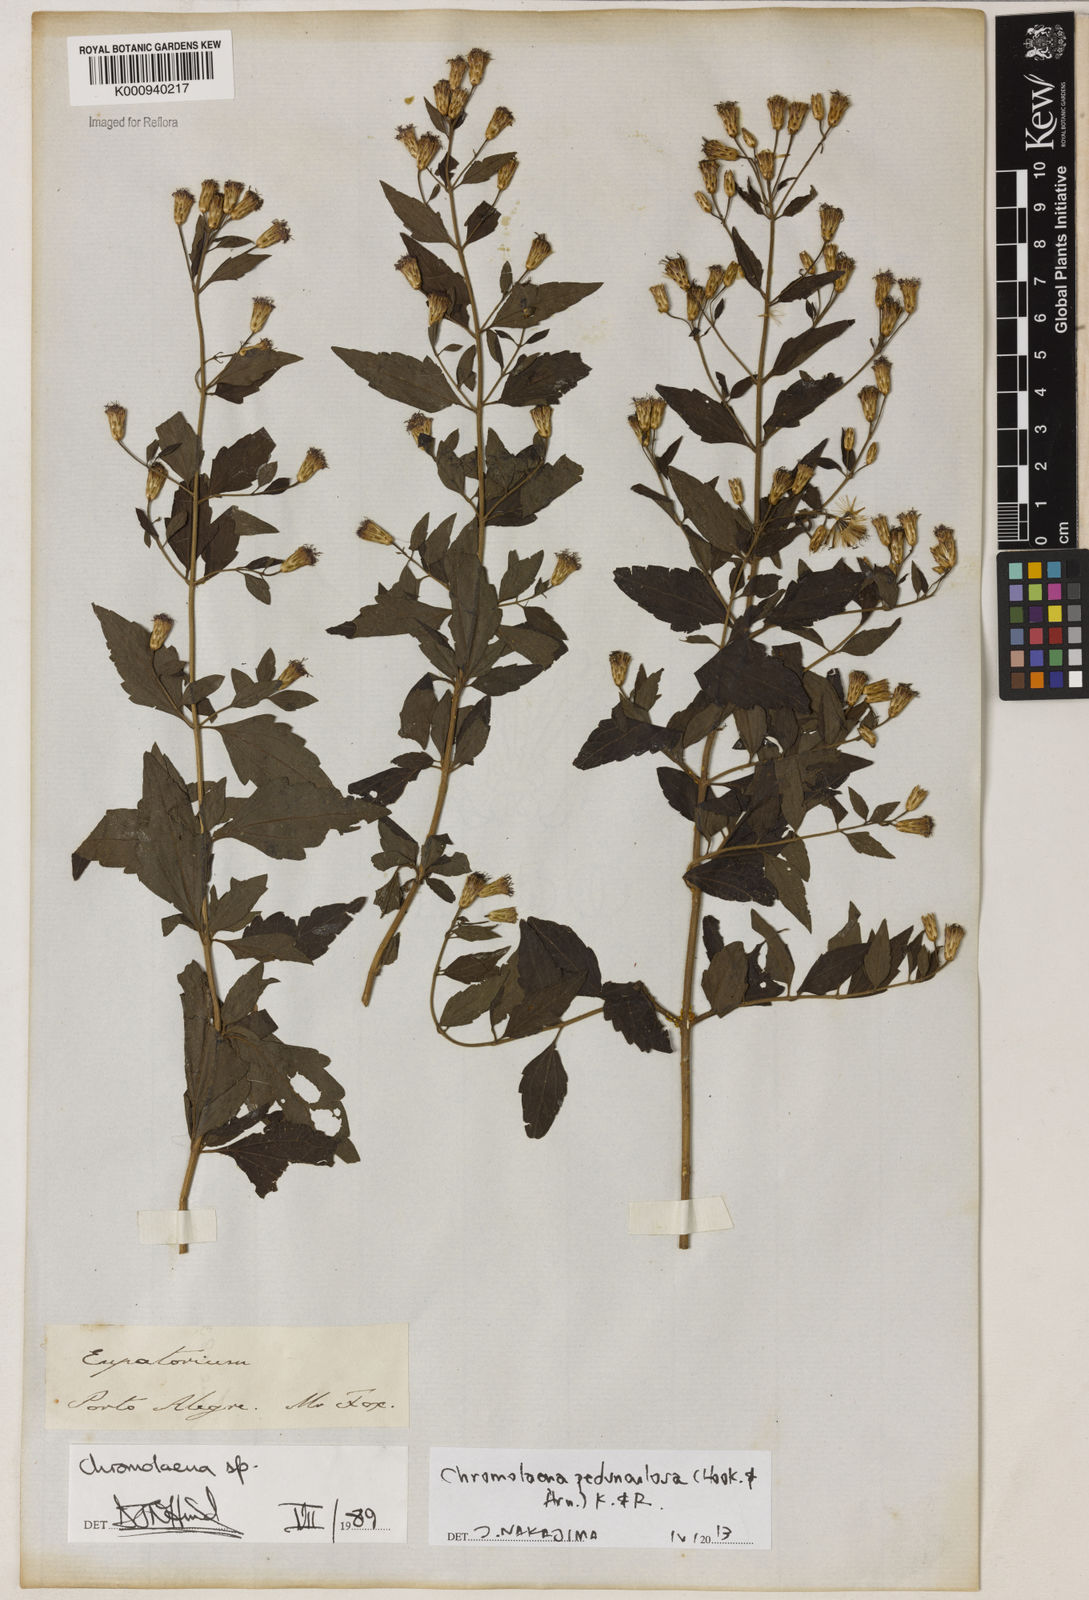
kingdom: Plantae
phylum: Tracheophyta
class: Magnoliopsida
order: Asterales
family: Asteraceae
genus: Chromolaena
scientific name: Chromolaena pedunculosa
